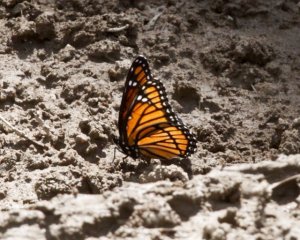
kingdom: Animalia
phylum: Arthropoda
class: Insecta
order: Lepidoptera
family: Nymphalidae
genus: Limenitis
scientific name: Limenitis archippus
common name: Viceroy
